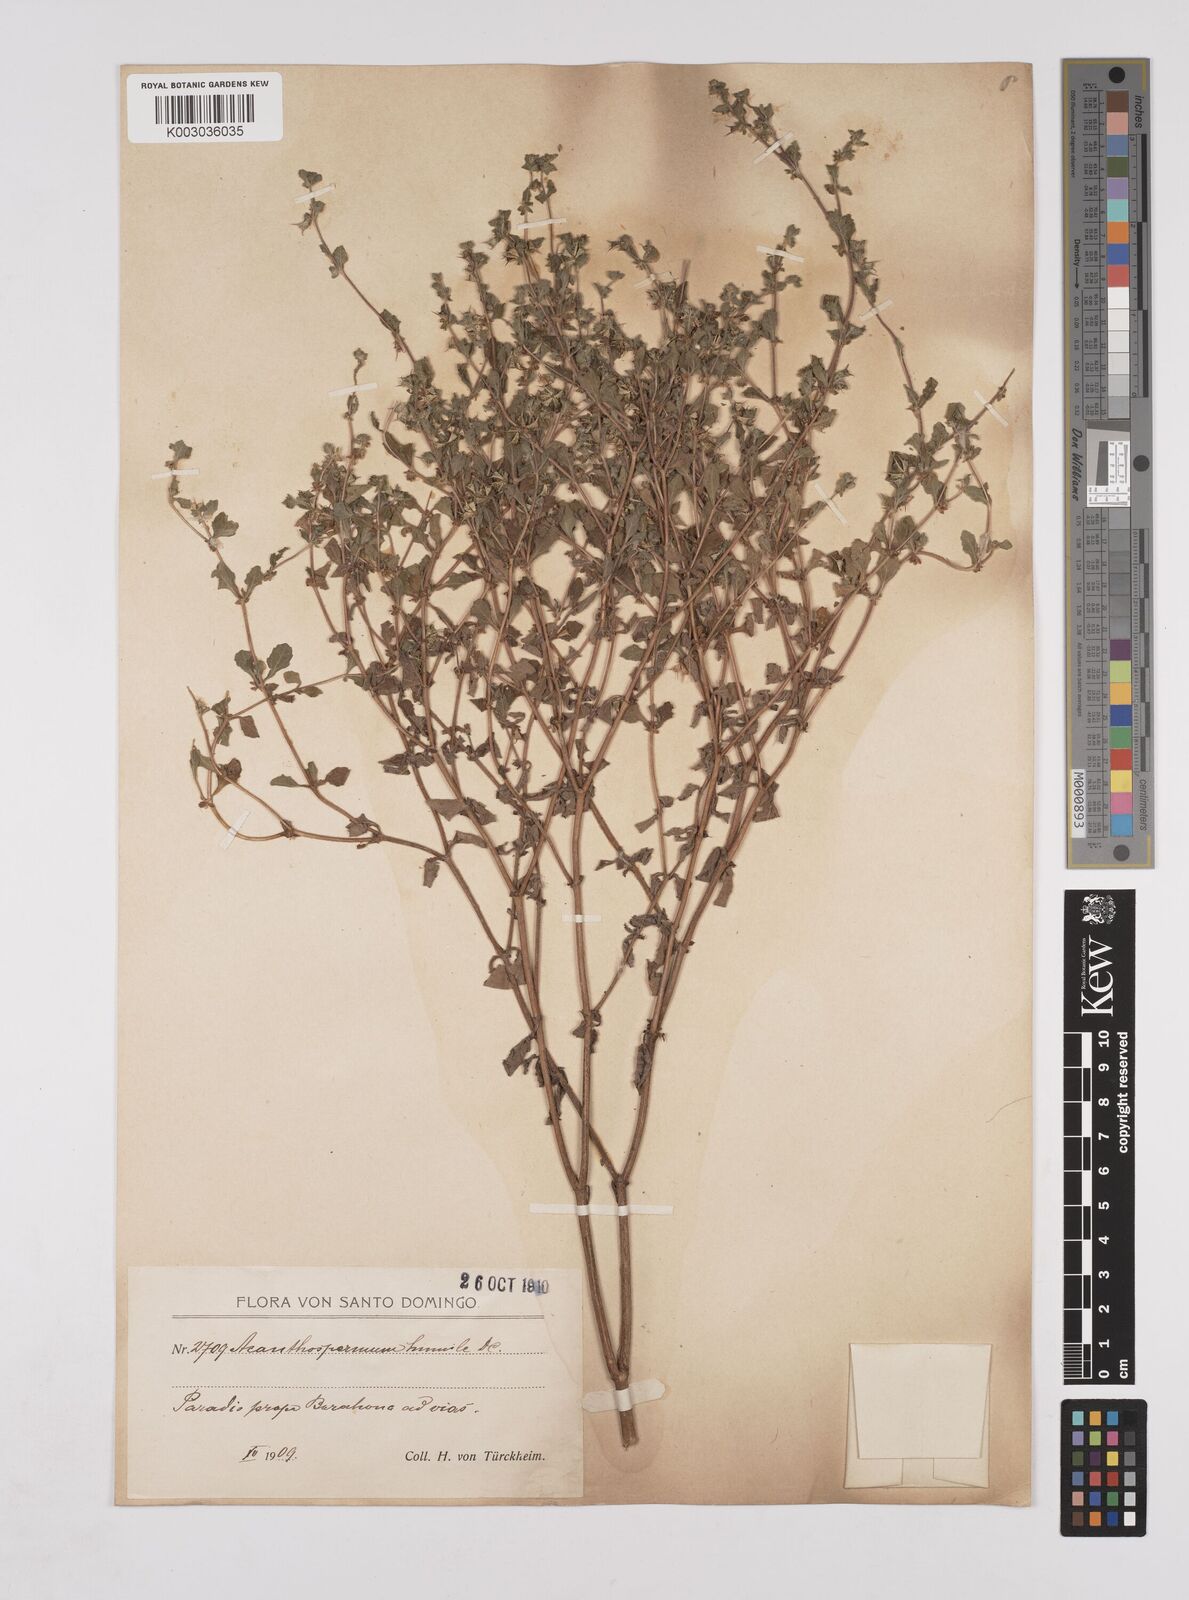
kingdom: Plantae
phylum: Tracheophyta
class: Magnoliopsida
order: Asterales
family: Asteraceae
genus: Acanthospermum
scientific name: Acanthospermum humile
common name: Low starbur
